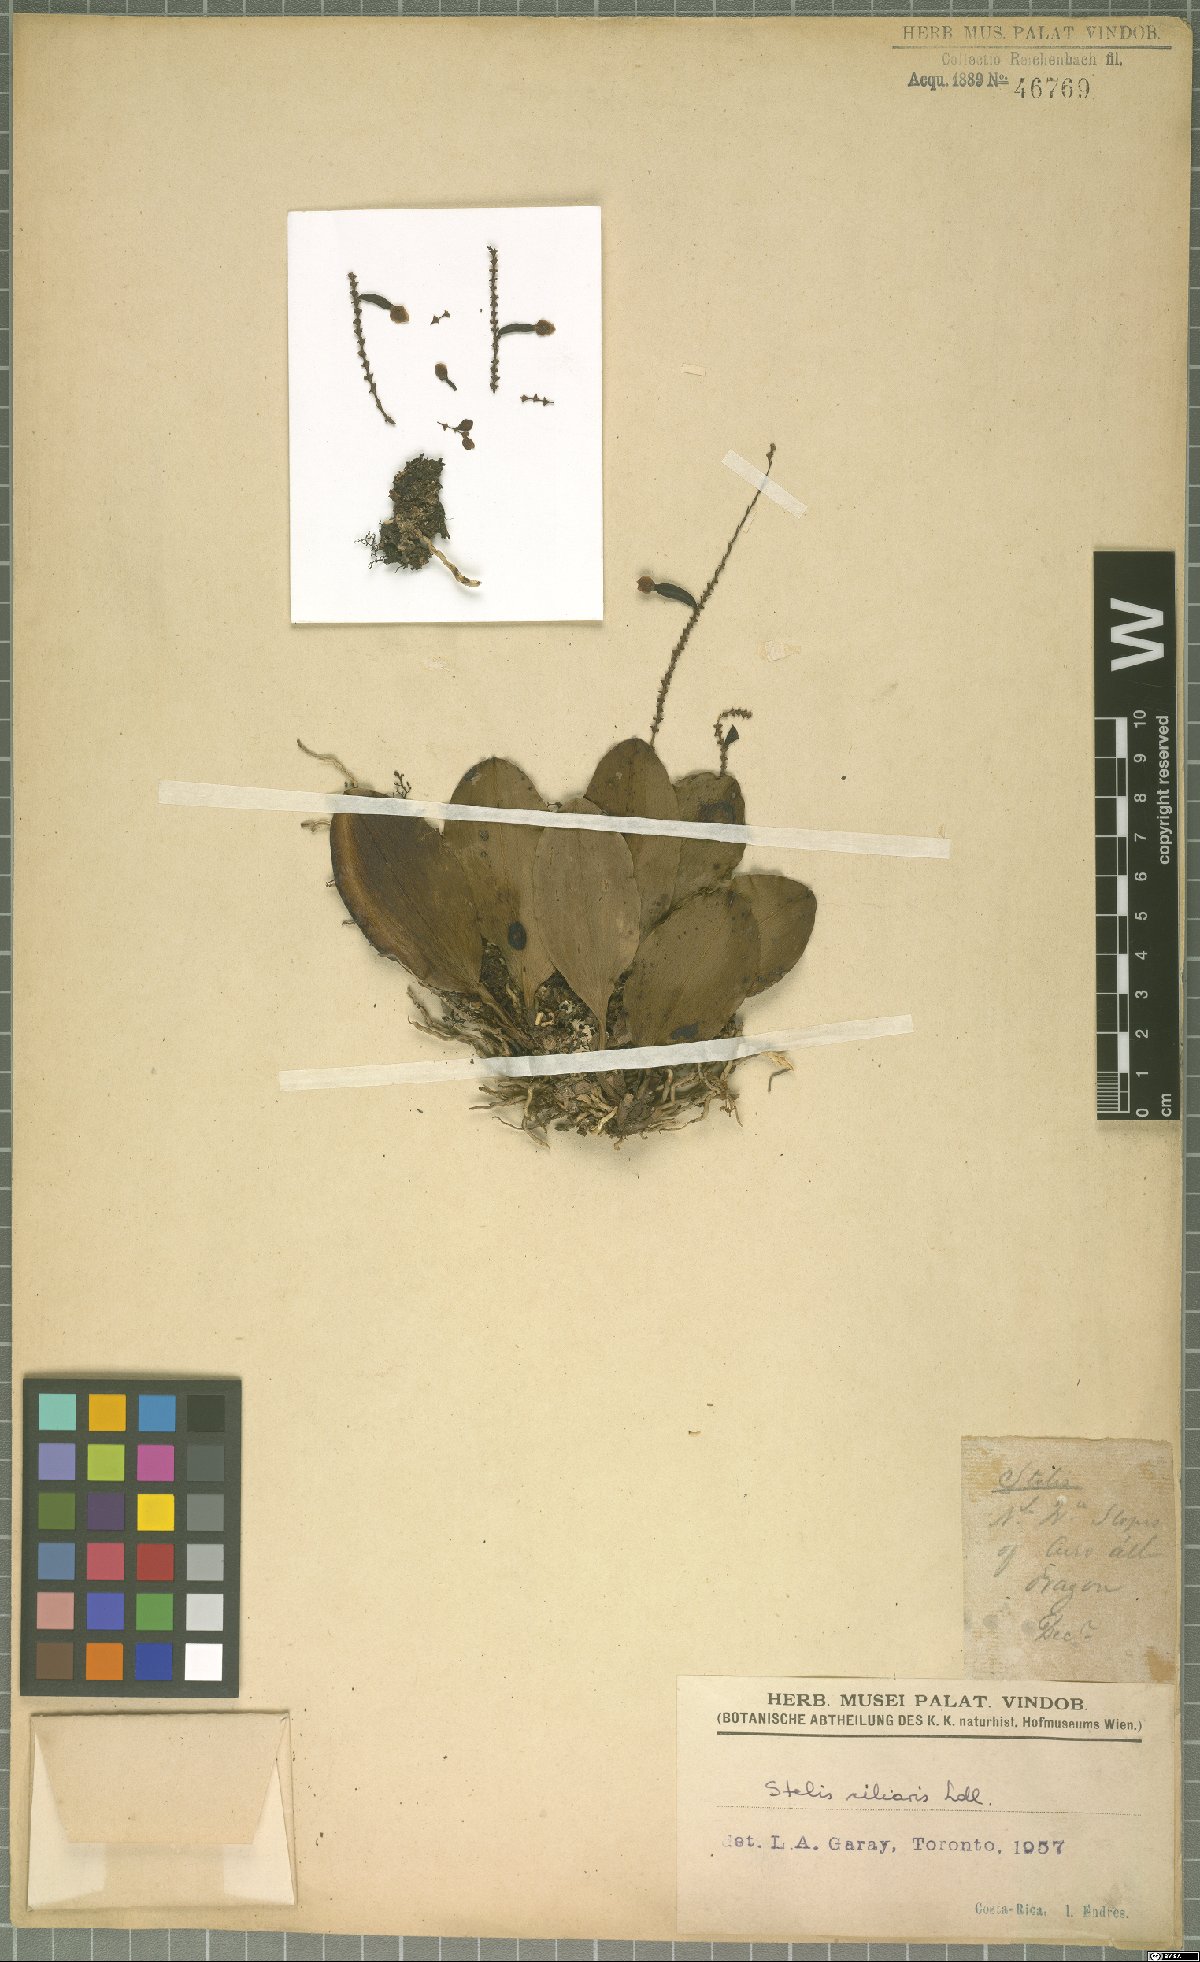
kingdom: Plantae
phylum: Tracheophyta
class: Liliopsida
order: Asparagales
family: Orchidaceae
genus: Stelis
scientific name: Stelis ciliaris
